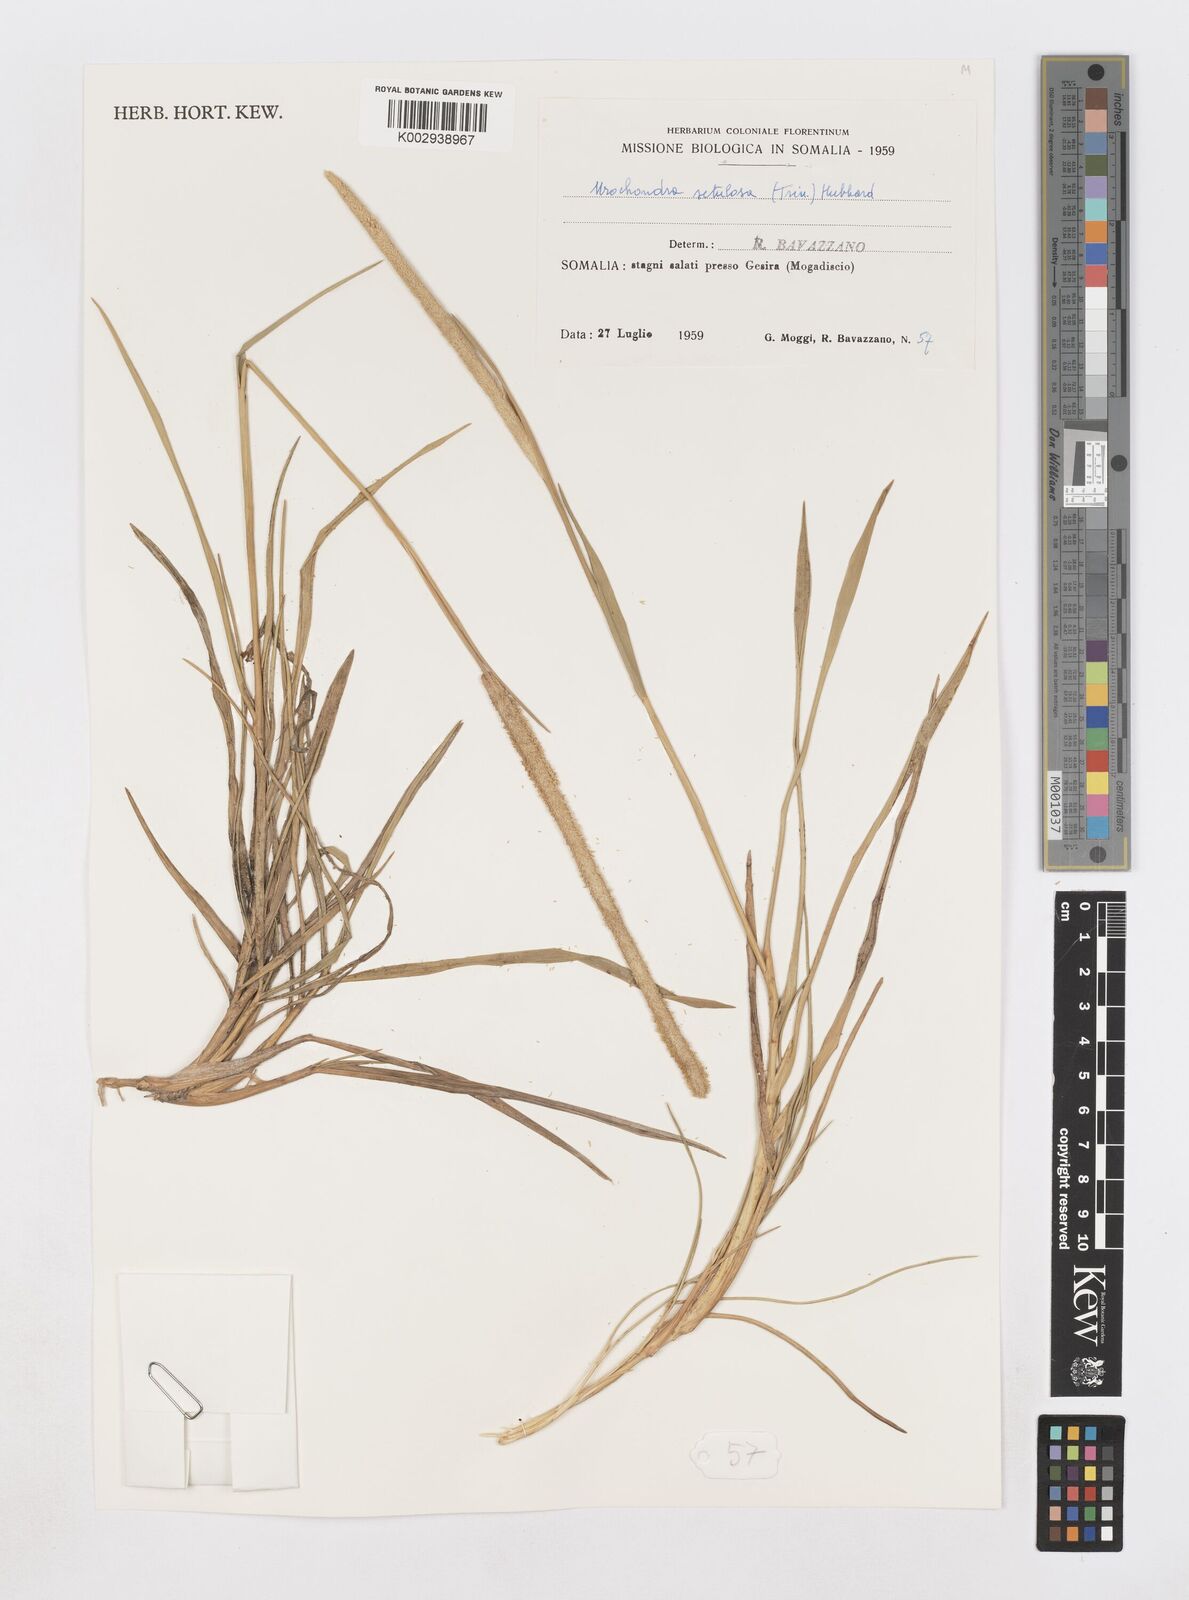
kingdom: Plantae
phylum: Tracheophyta
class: Liliopsida
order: Poales
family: Poaceae
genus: Urochondra
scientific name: Urochondra setulosa
